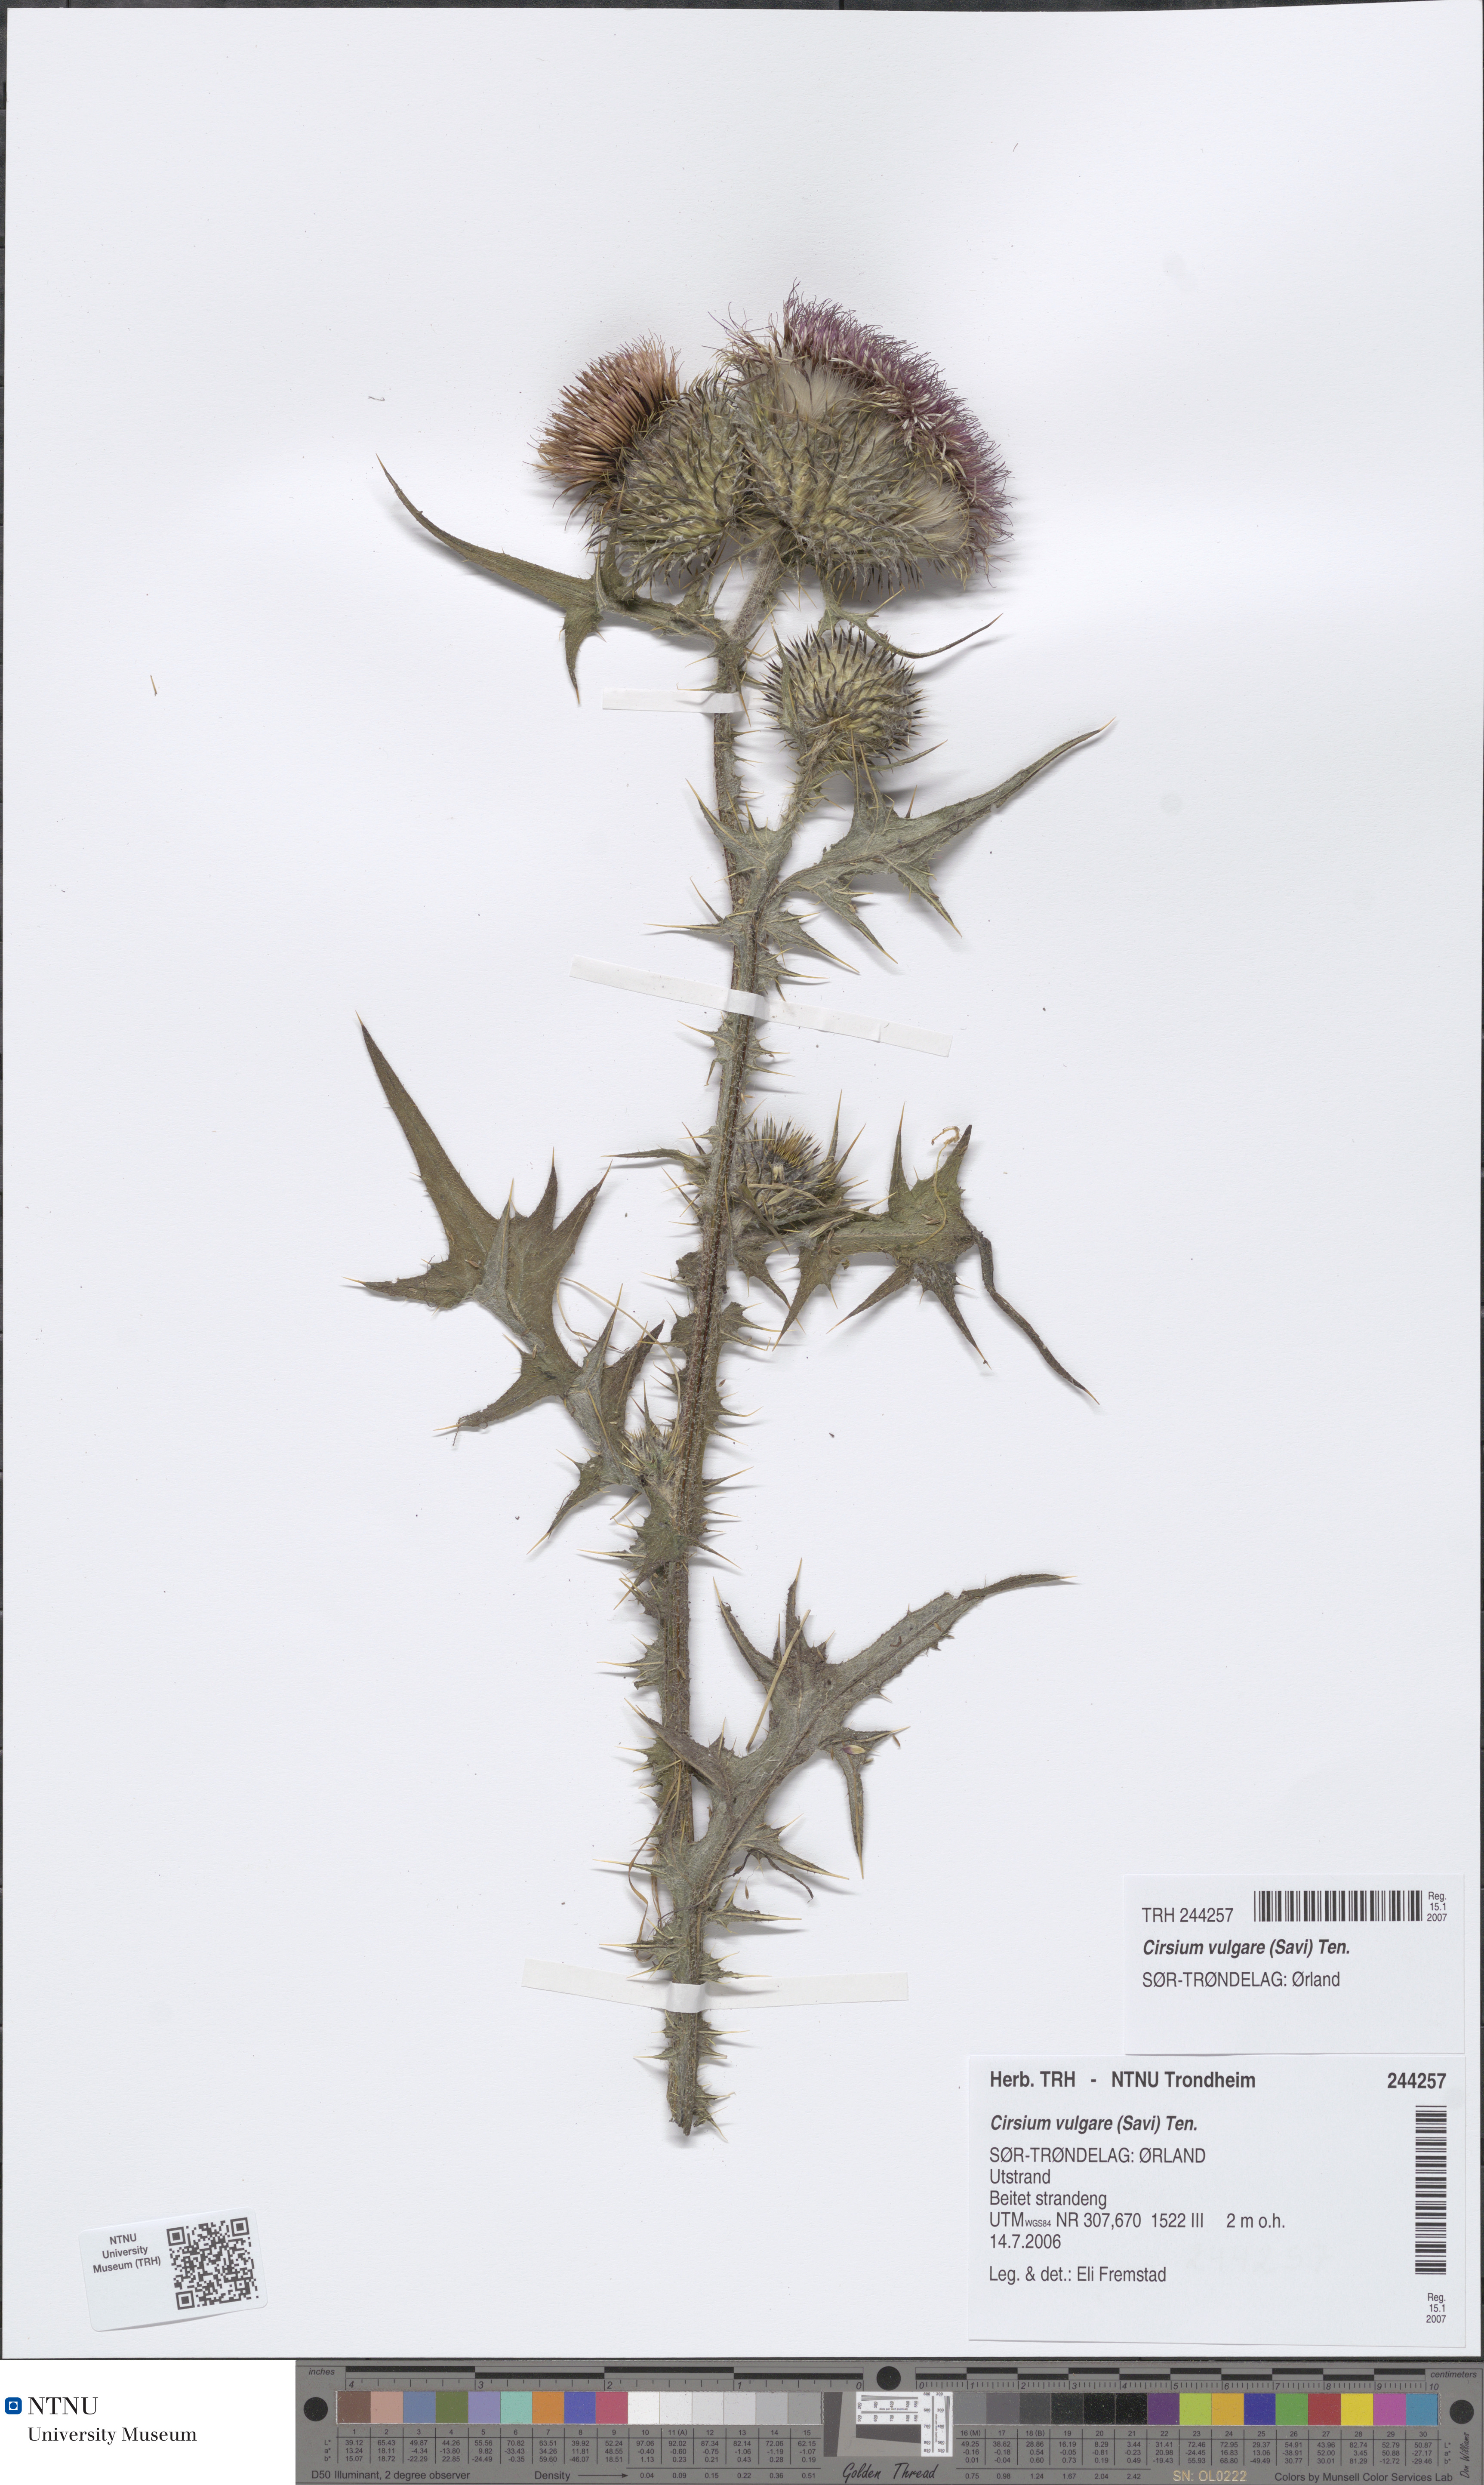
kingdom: Plantae
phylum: Tracheophyta
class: Magnoliopsida
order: Asterales
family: Asteraceae
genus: Cirsium
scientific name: Cirsium vulgare
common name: Bull thistle
